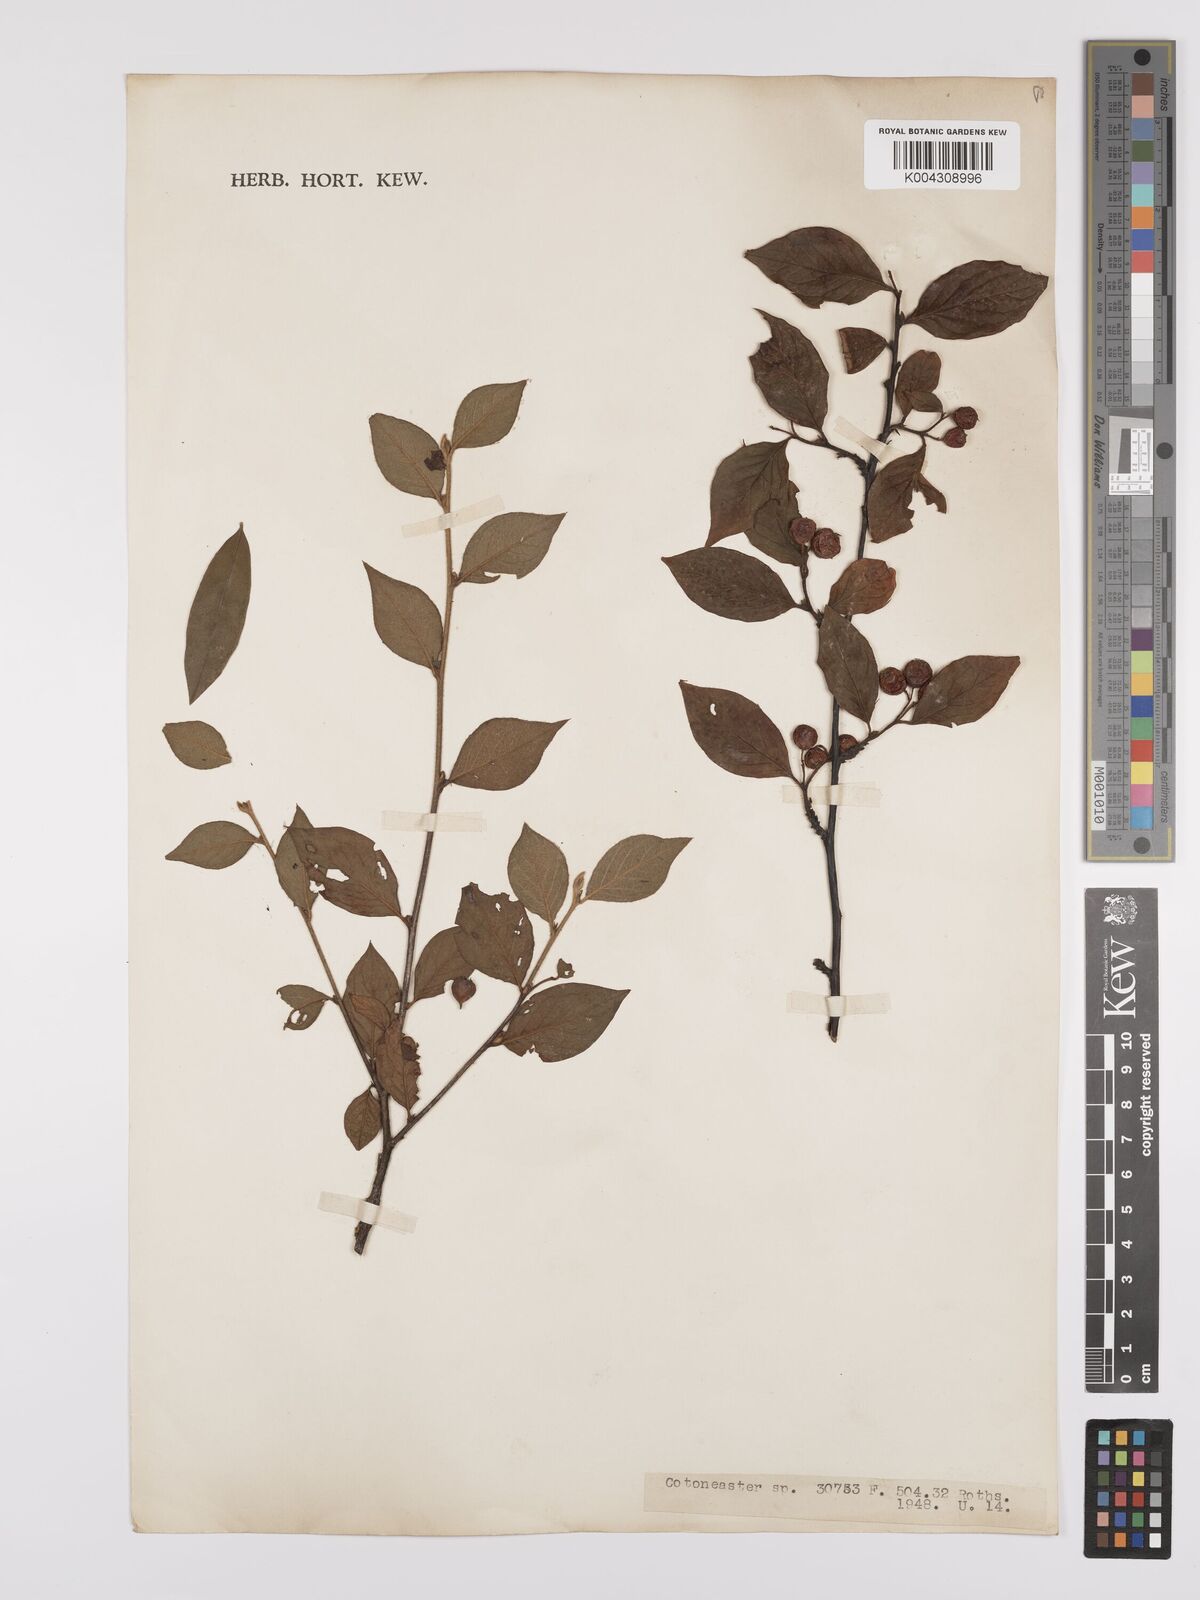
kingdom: Plantae
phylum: Tracheophyta
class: Magnoliopsida
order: Rosales
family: Rosaceae
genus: Cotoneaster
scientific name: Cotoneaster
